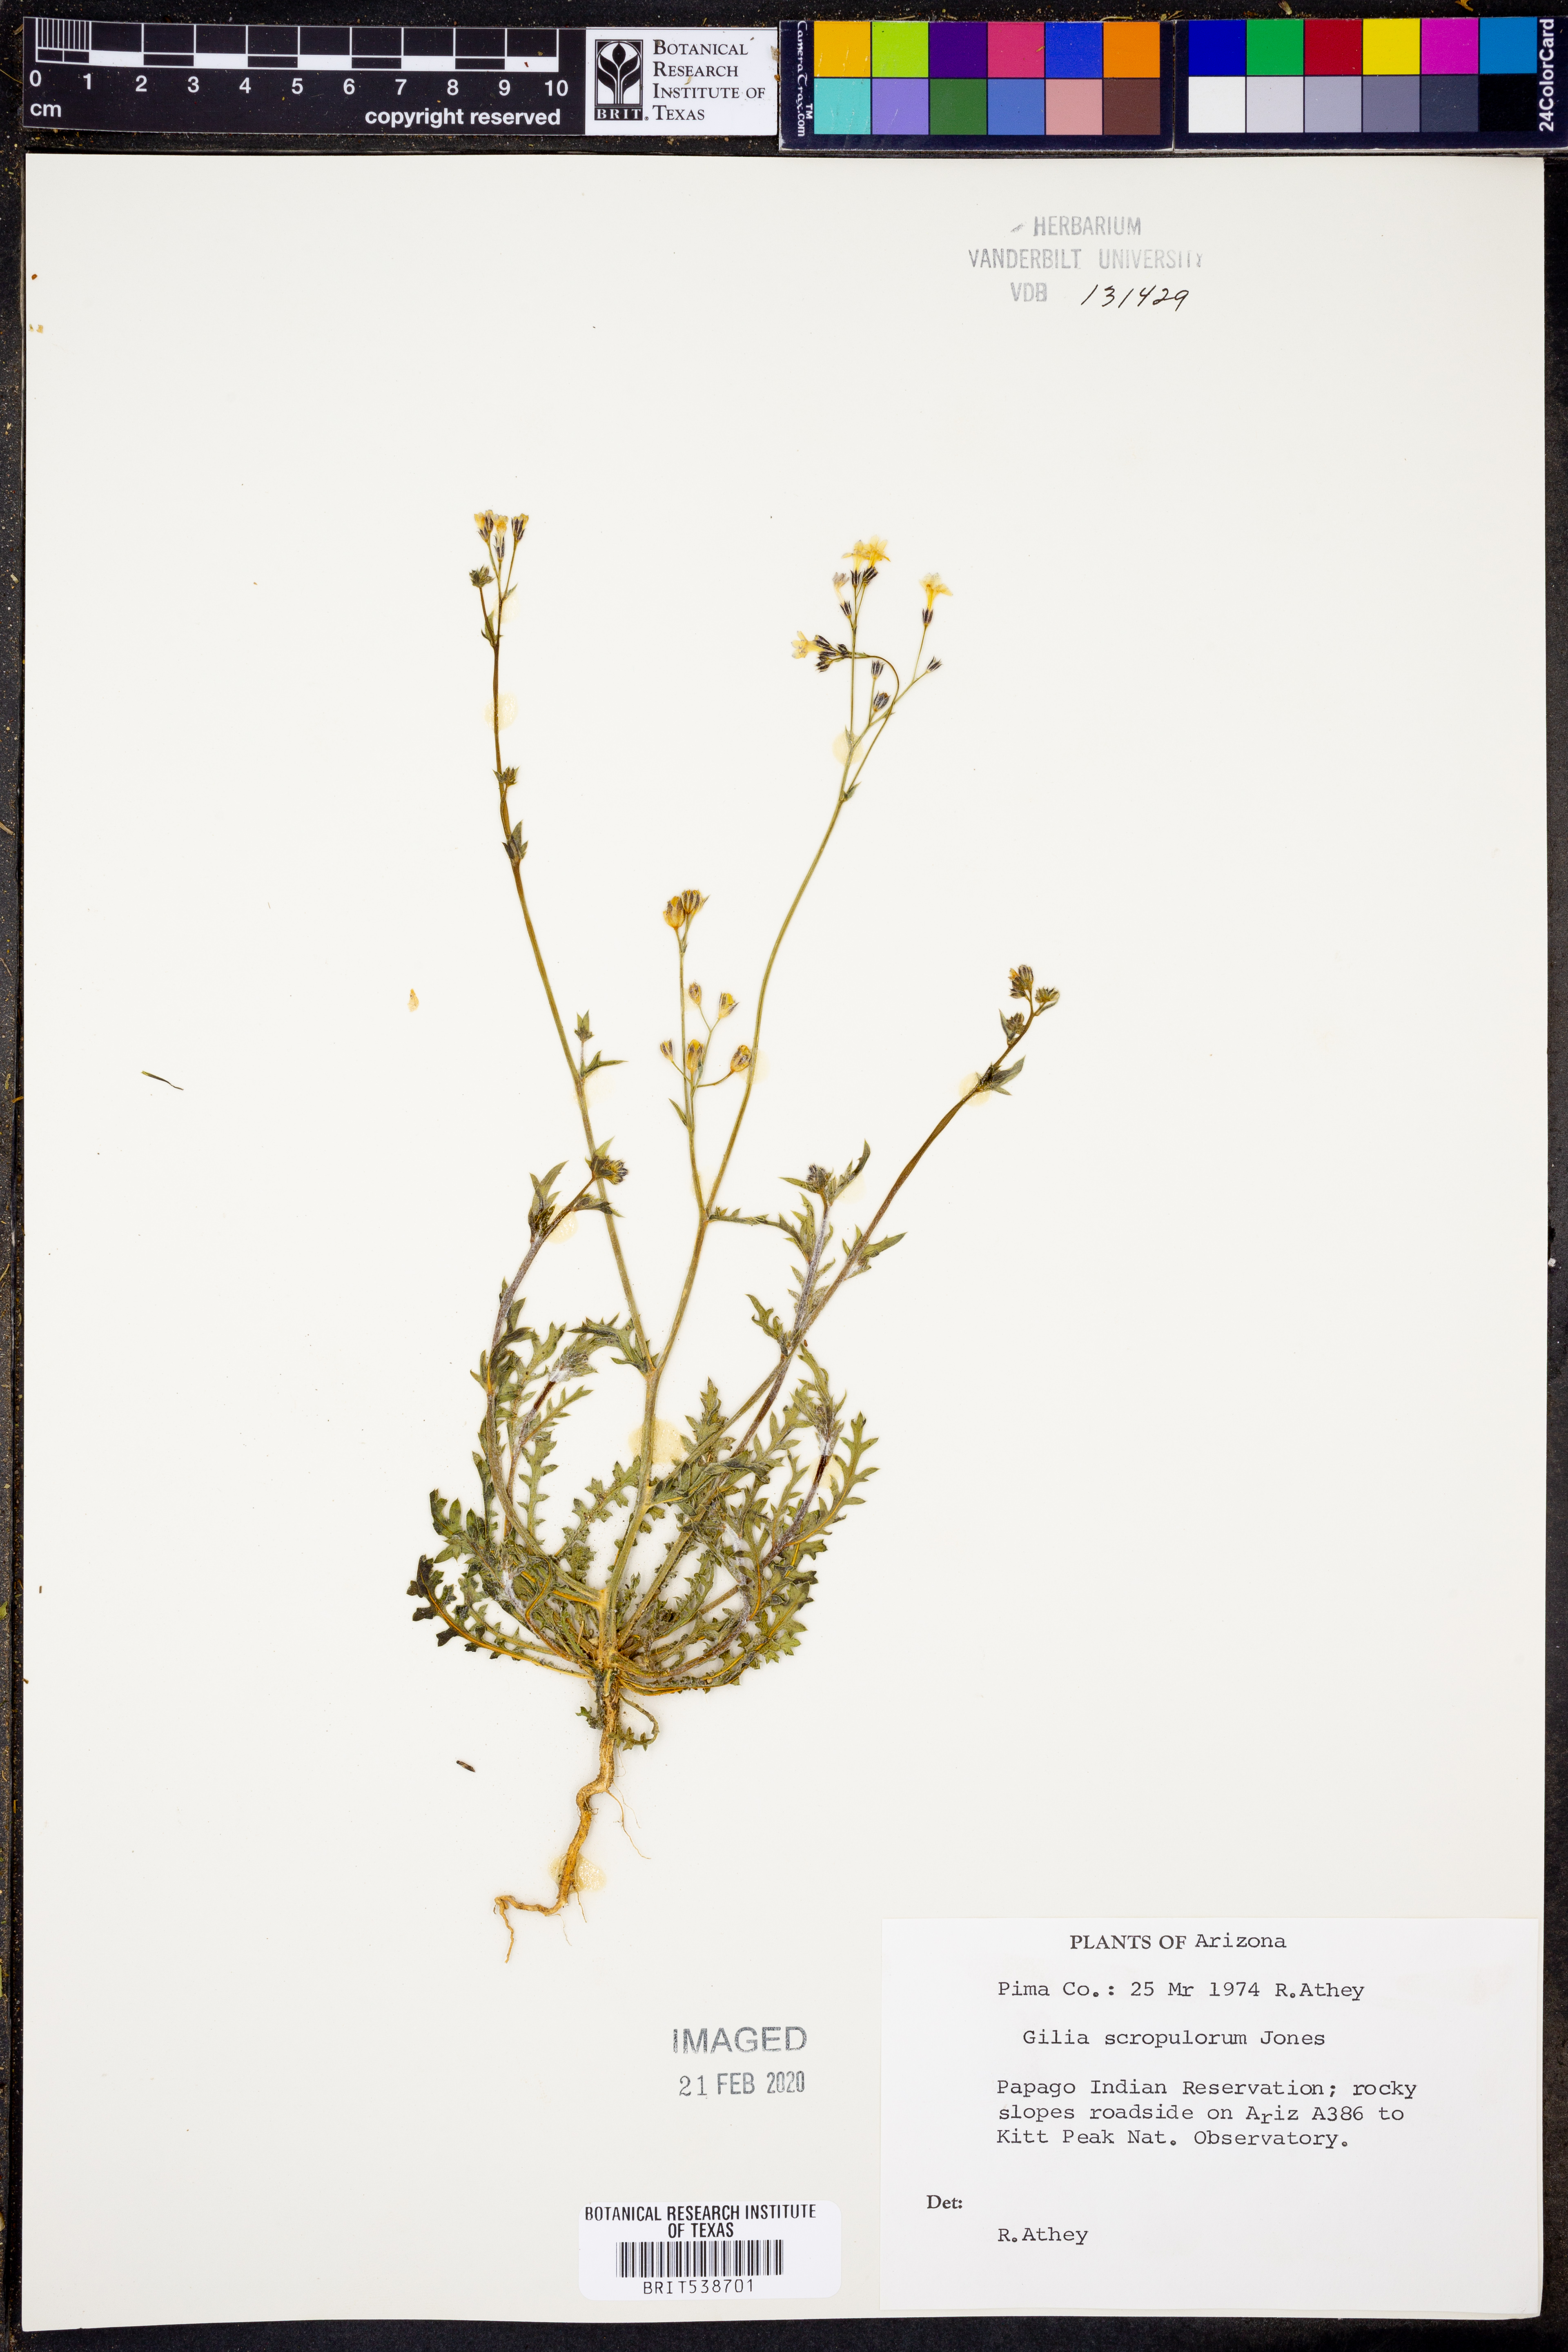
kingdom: Plantae
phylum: Tracheophyta
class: Magnoliopsida
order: Ericales
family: Polemoniaceae
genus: Gilia
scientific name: Gilia scopulorum
